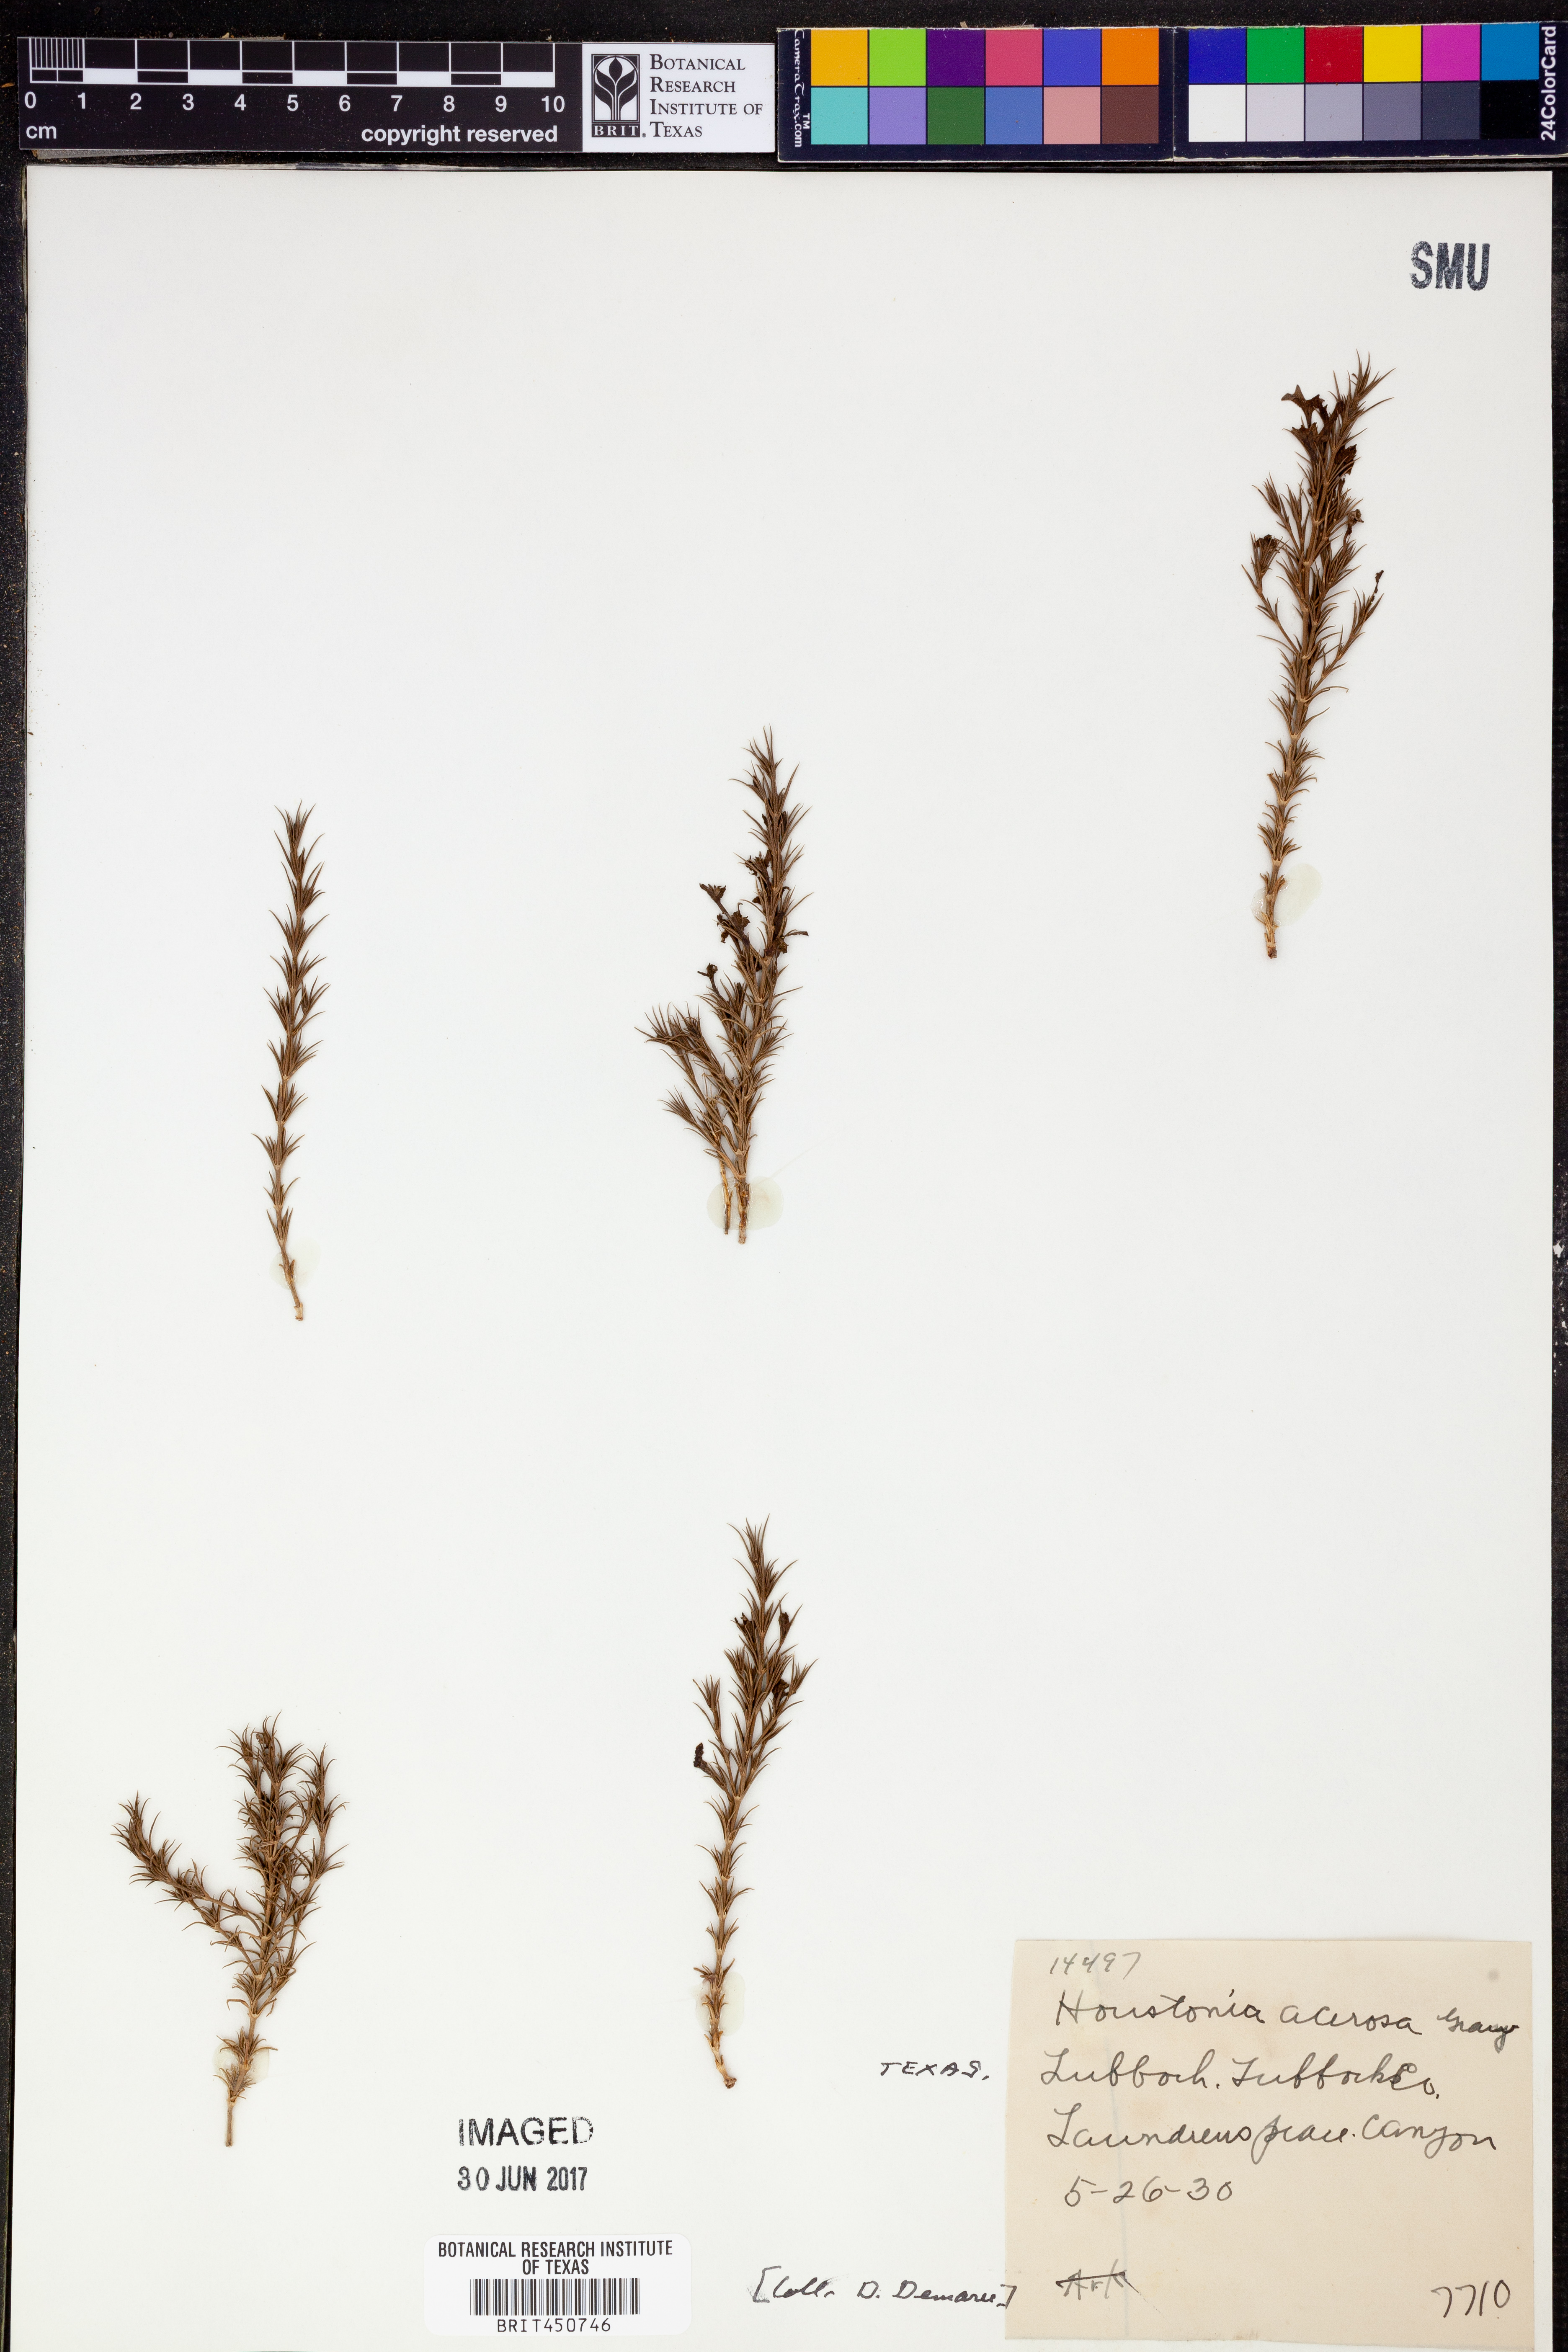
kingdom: Plantae
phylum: Tracheophyta
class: Magnoliopsida
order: Gentianales
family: Rubiaceae
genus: Houstonia
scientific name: Houstonia acerosa
